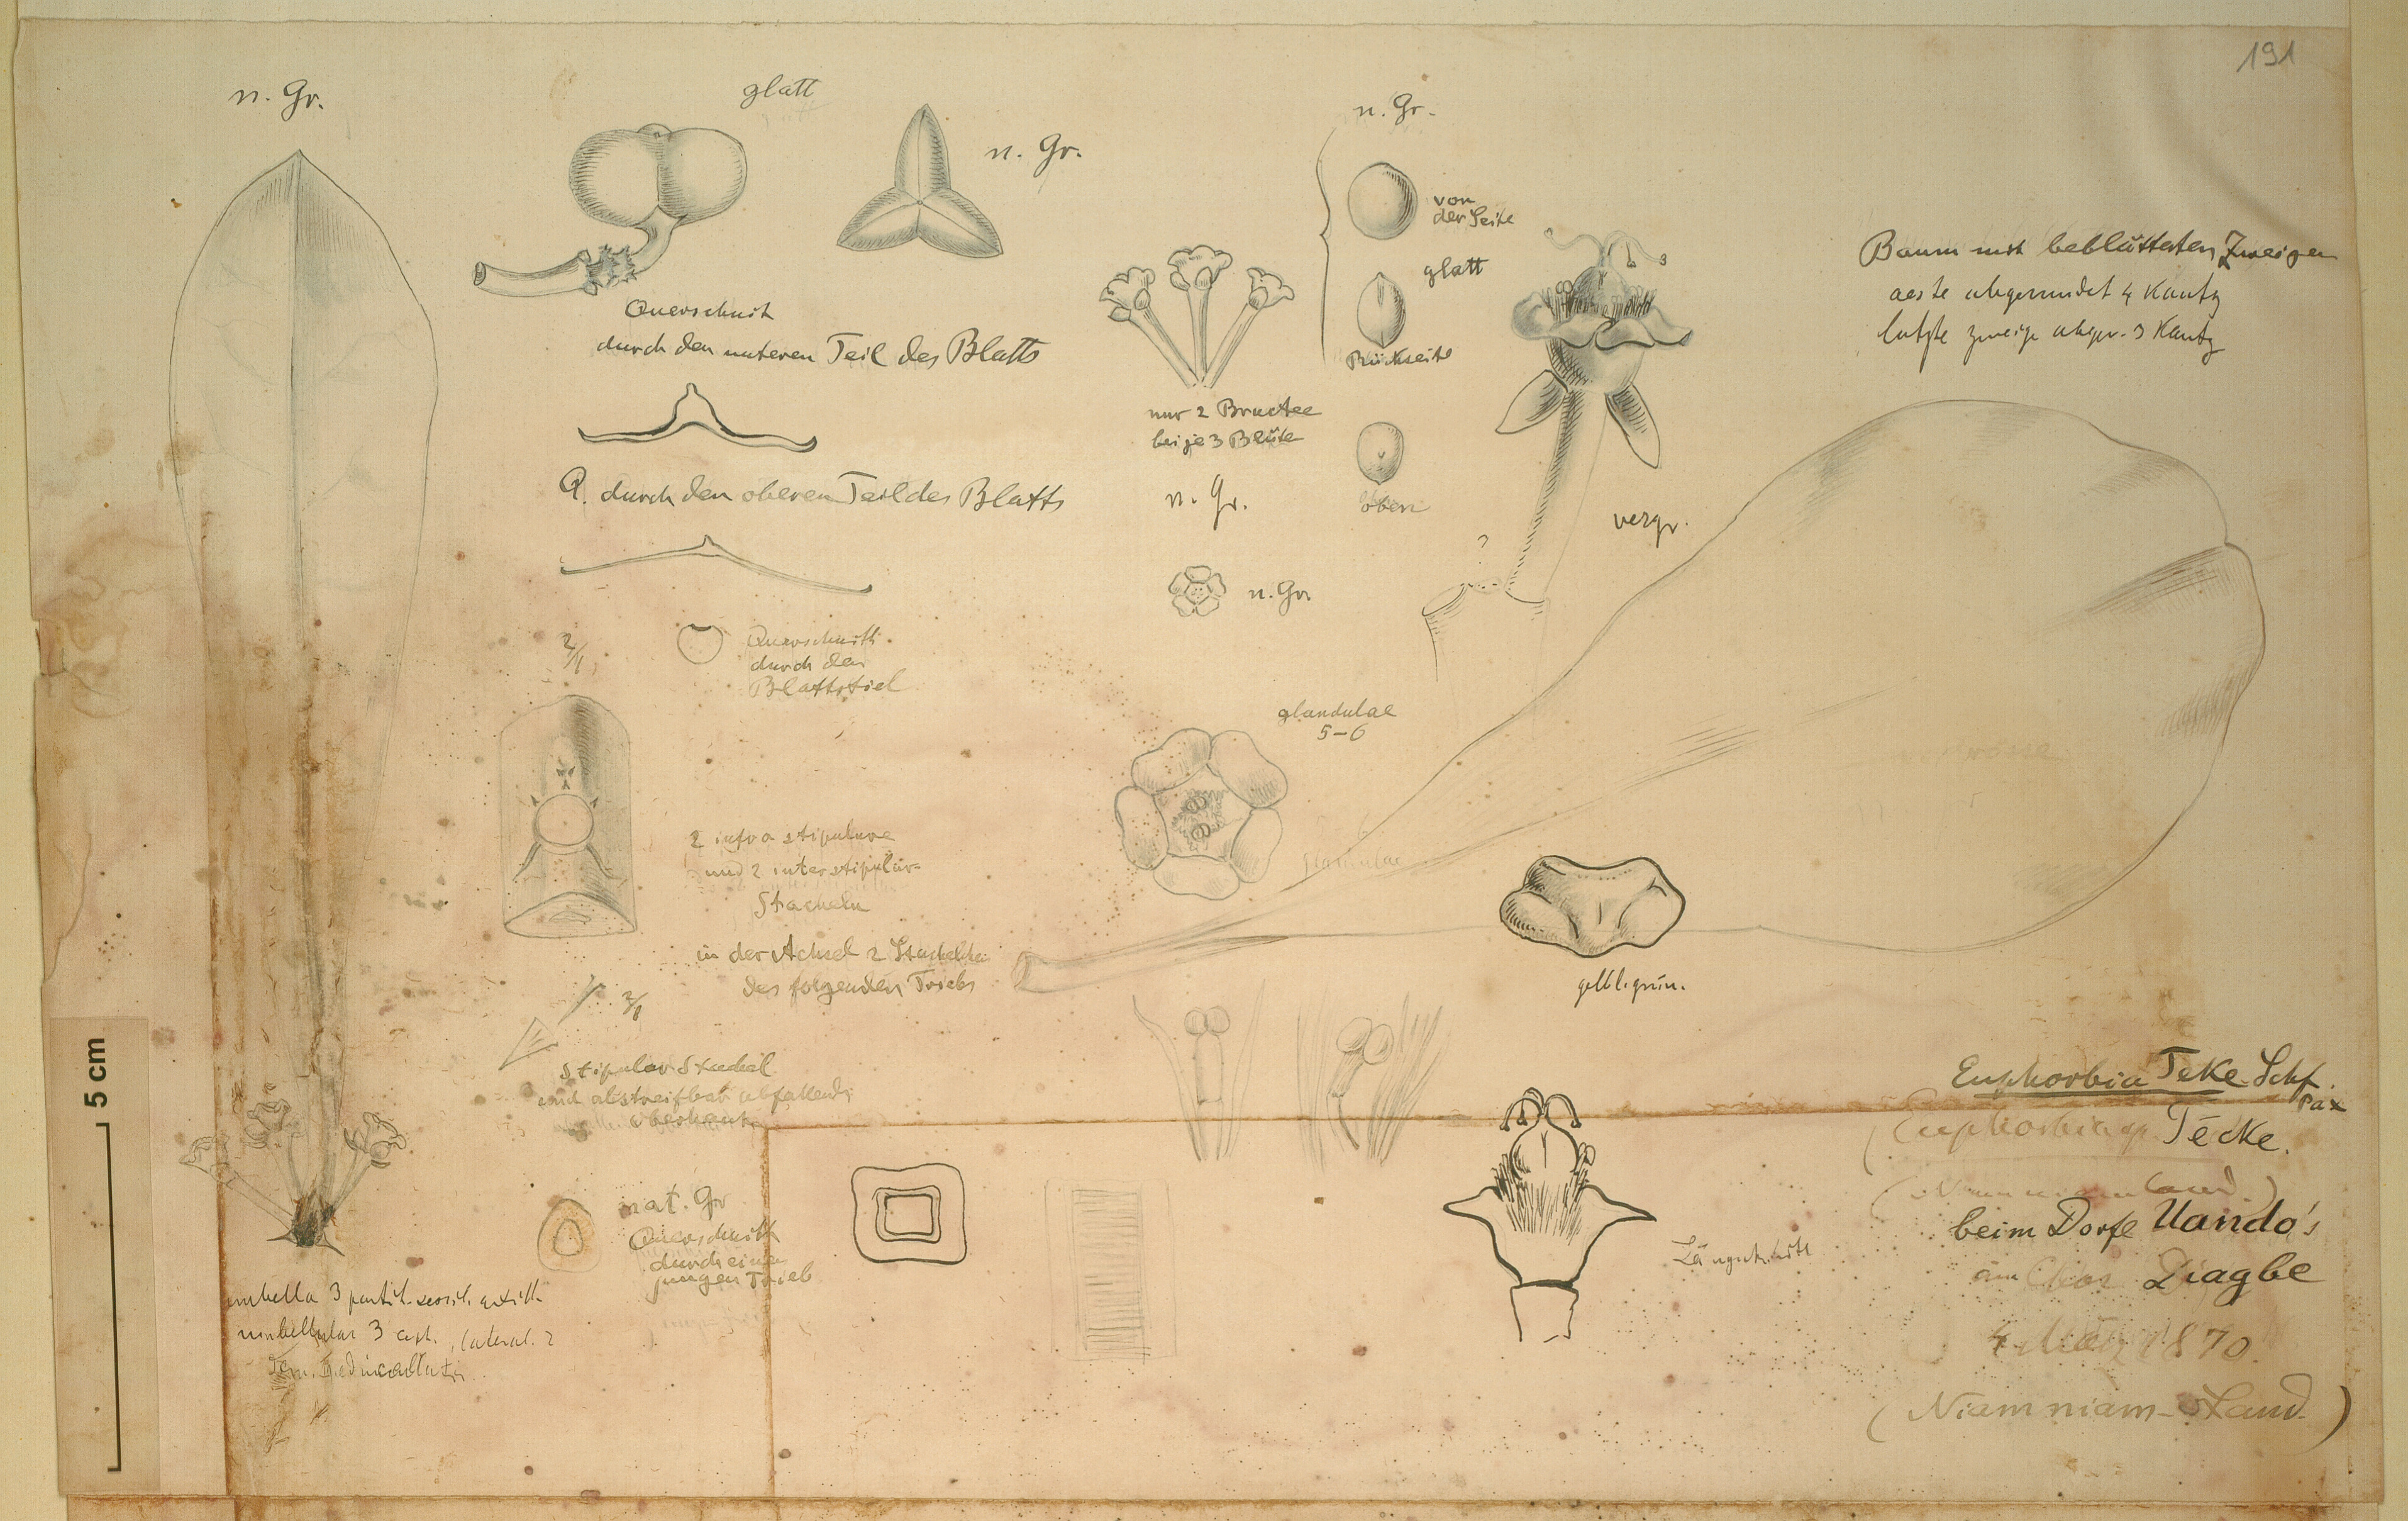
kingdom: Plantae
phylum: Tracheophyta
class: Magnoliopsida
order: Malpighiales
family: Euphorbiaceae
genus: Euphorbia
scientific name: Euphorbia teke
